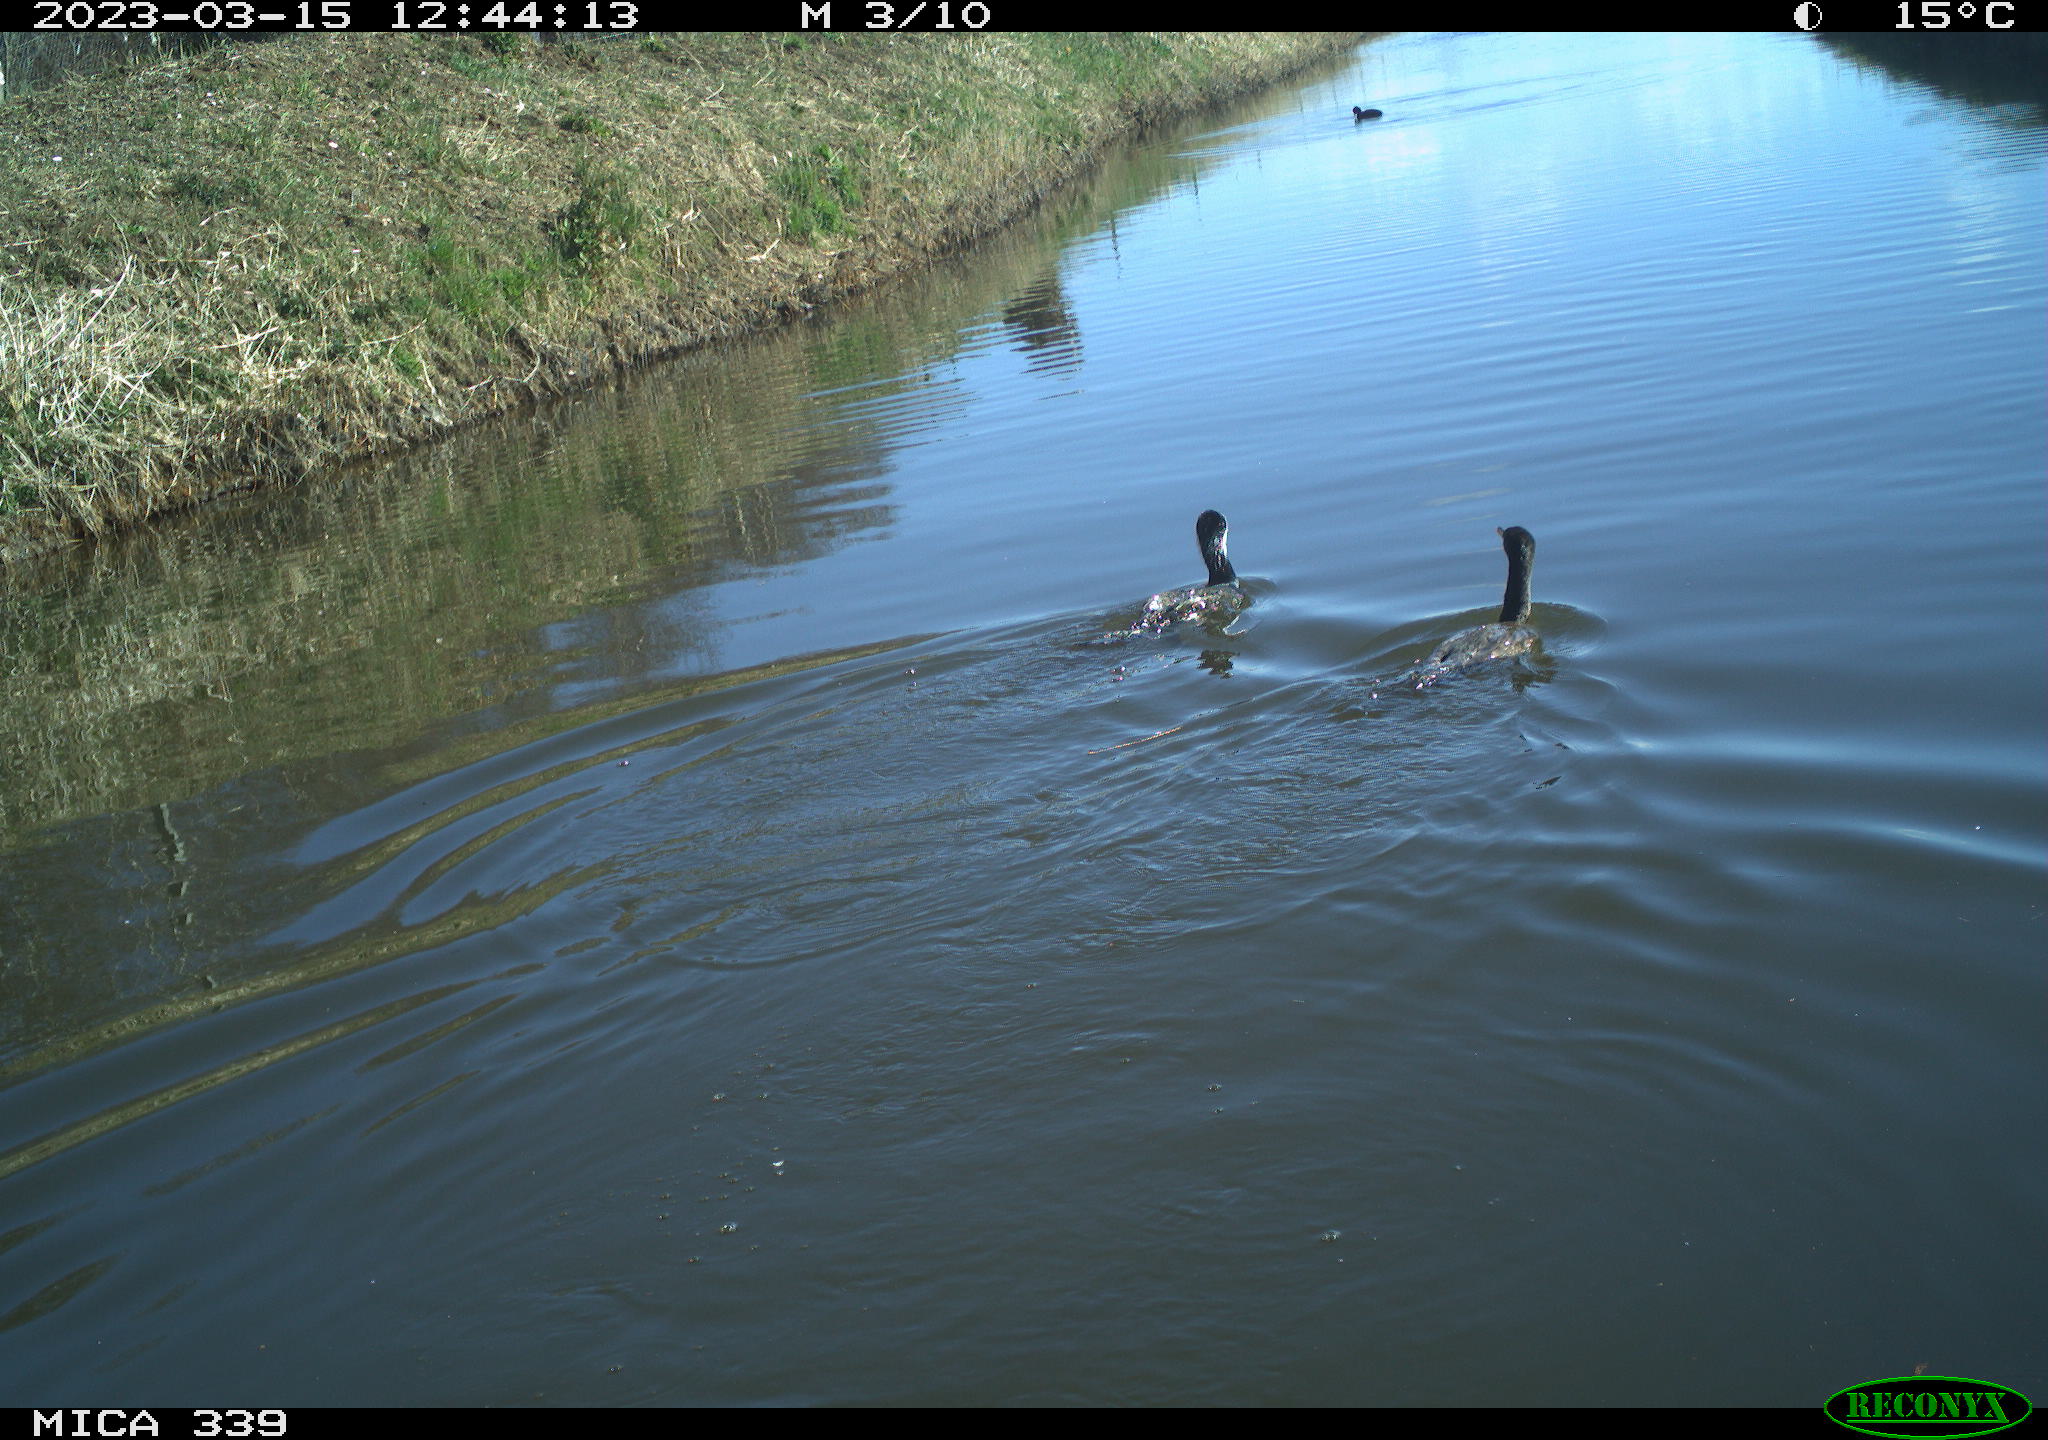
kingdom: Animalia
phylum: Chordata
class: Aves
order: Gruiformes
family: Rallidae
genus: Fulica
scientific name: Fulica atra
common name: Eurasian coot
